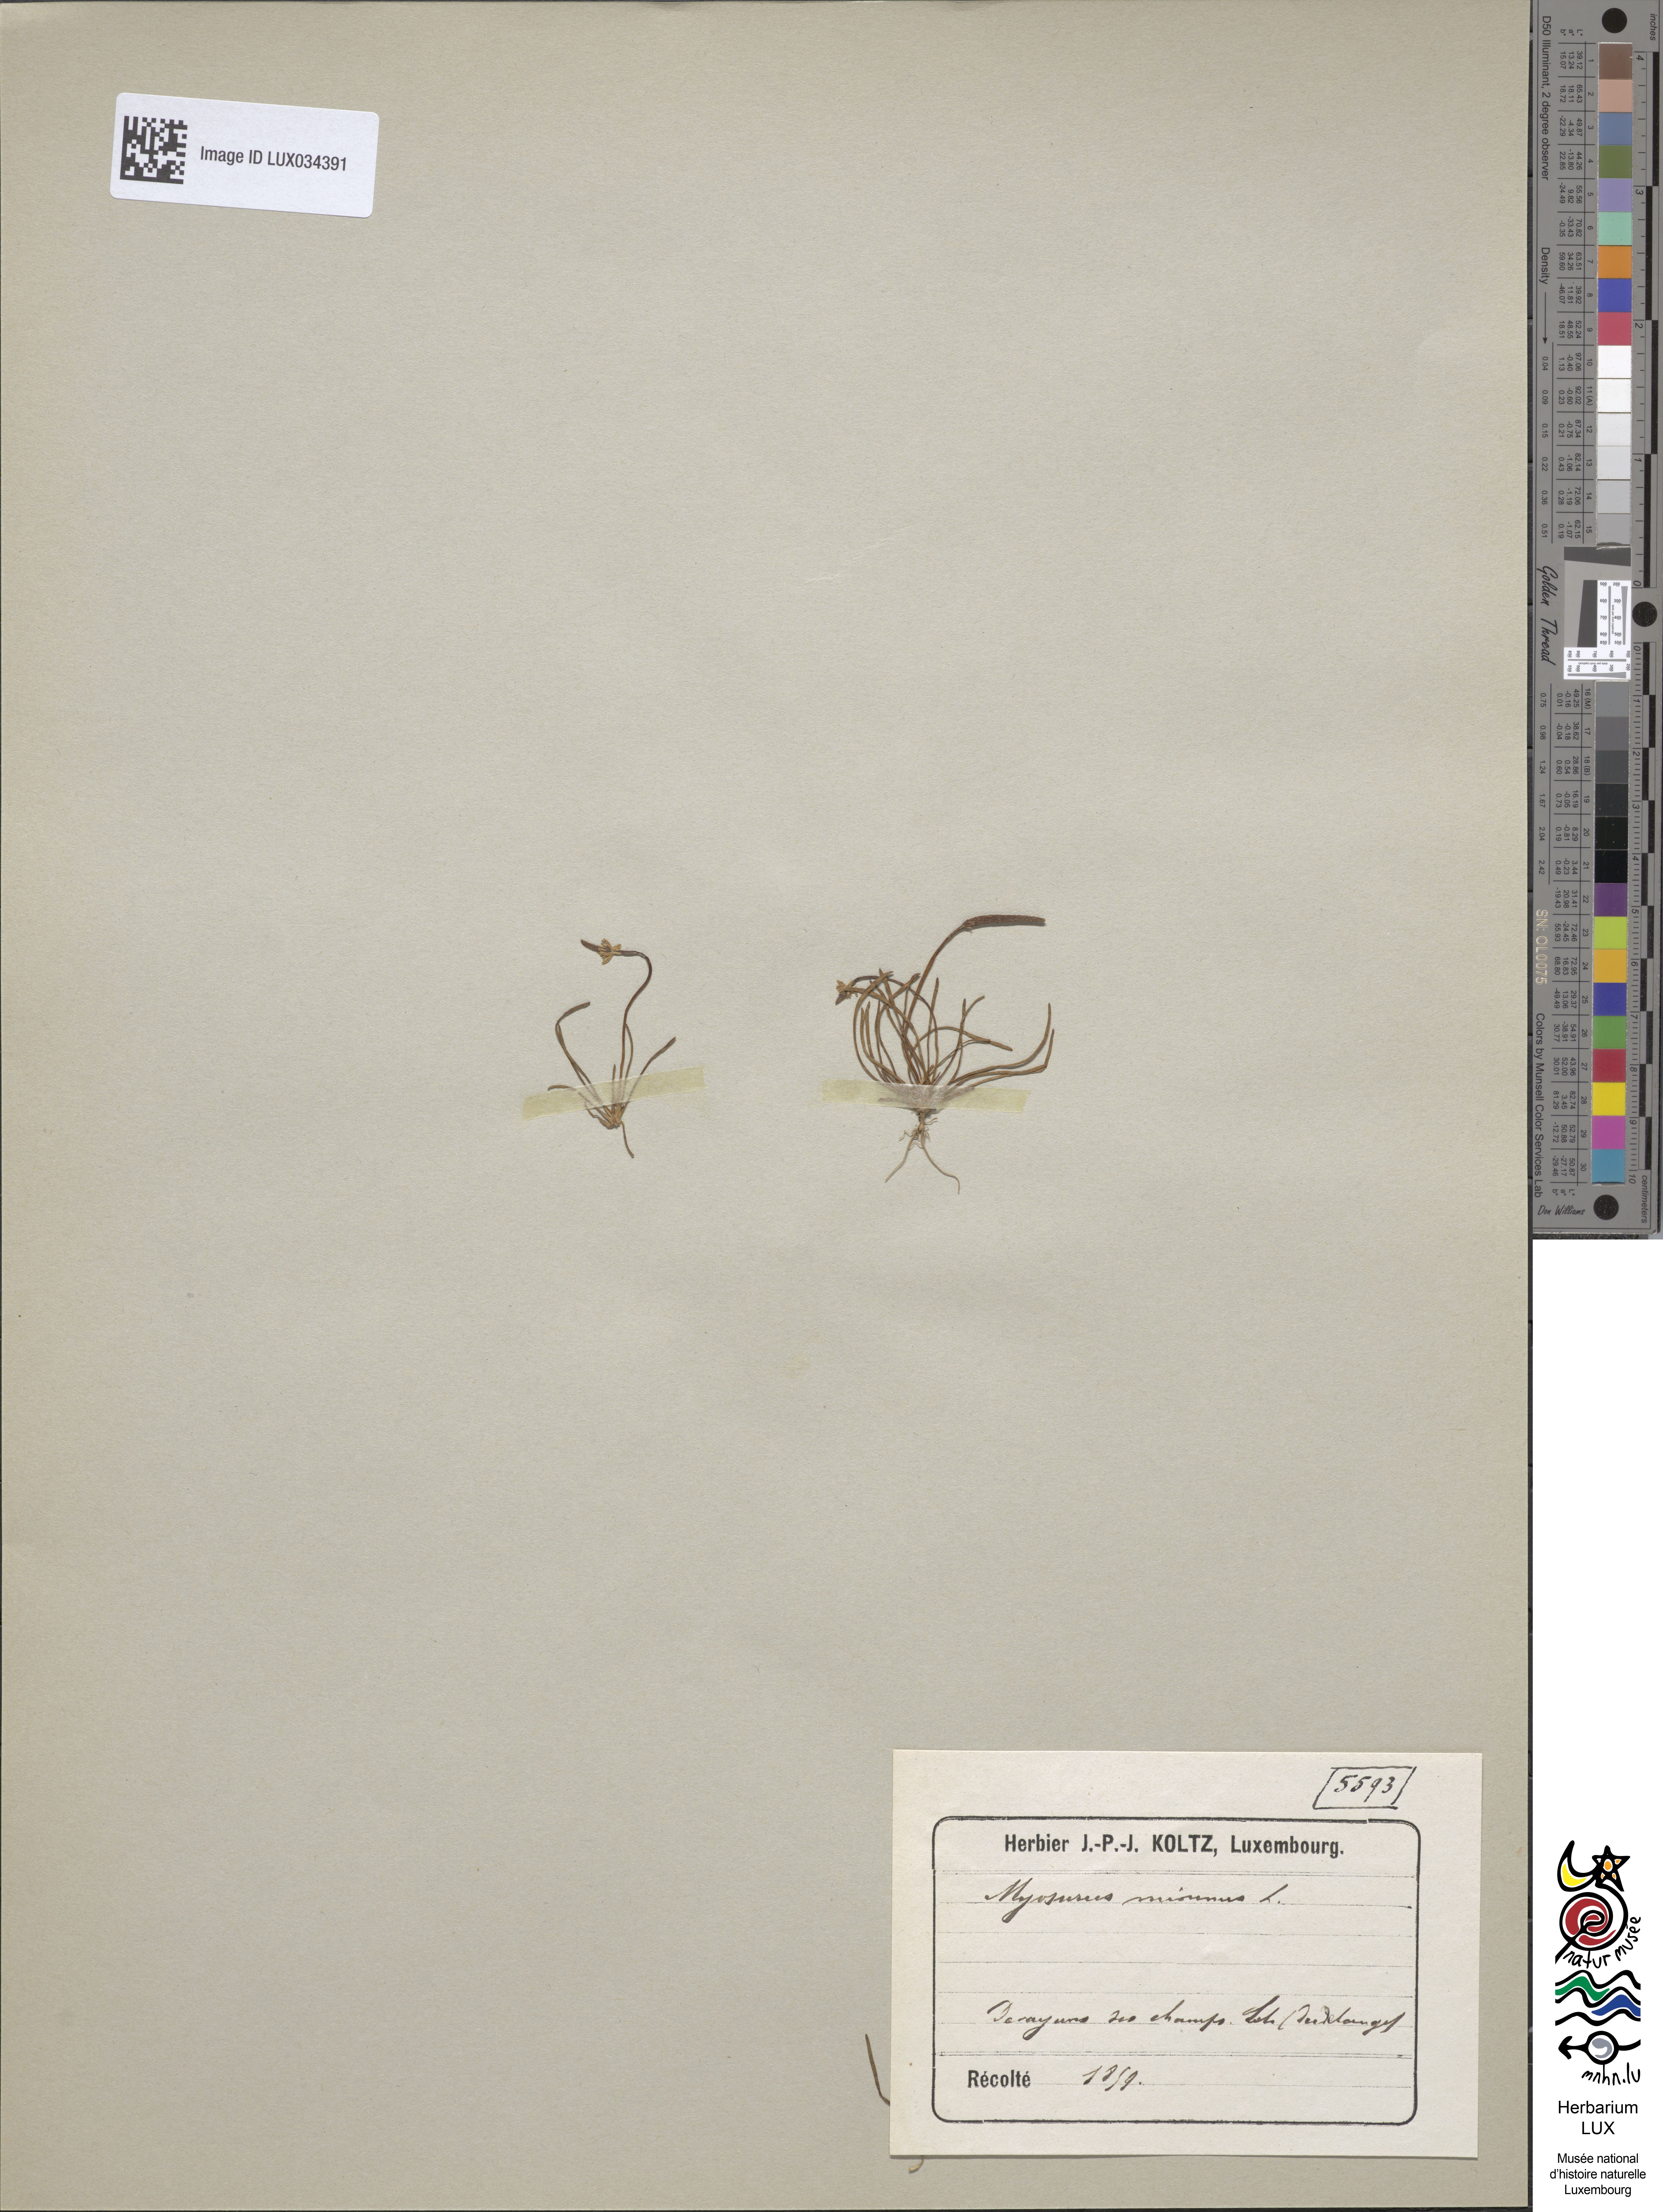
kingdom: Plantae
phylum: Tracheophyta
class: Magnoliopsida
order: Ranunculales
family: Ranunculaceae
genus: Myosurus
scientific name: Myosurus minimus
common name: Mousetail
